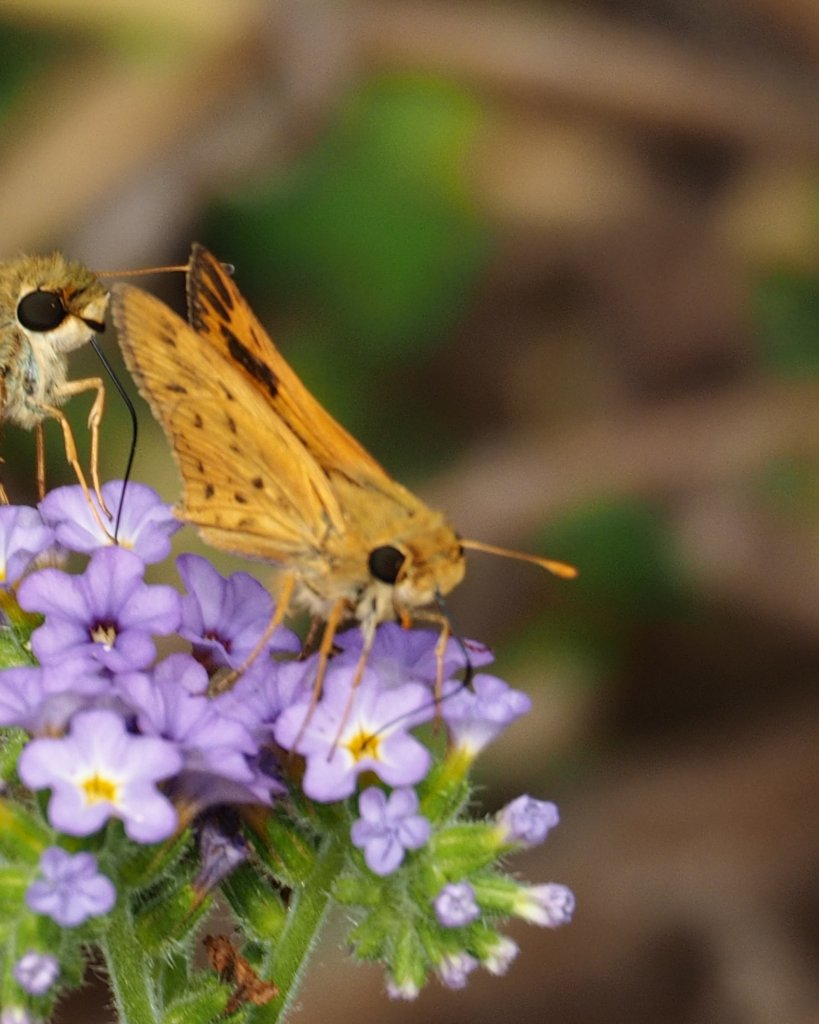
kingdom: Animalia
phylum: Arthropoda
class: Insecta
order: Lepidoptera
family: Hesperiidae
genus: Hylephila
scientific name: Hylephila phyleus
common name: Fiery Skipper
